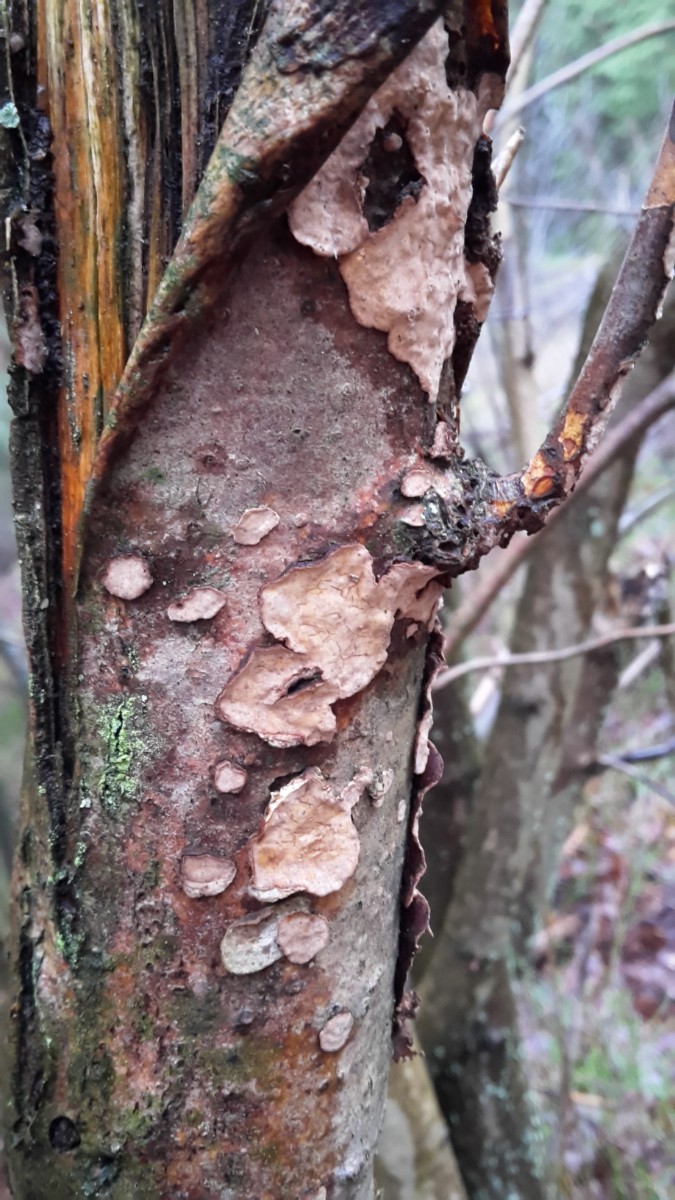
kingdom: Fungi
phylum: Basidiomycota
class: Agaricomycetes
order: Russulales
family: Stereaceae
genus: Stereum
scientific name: Stereum rugosum
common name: rynket lædersvamp
